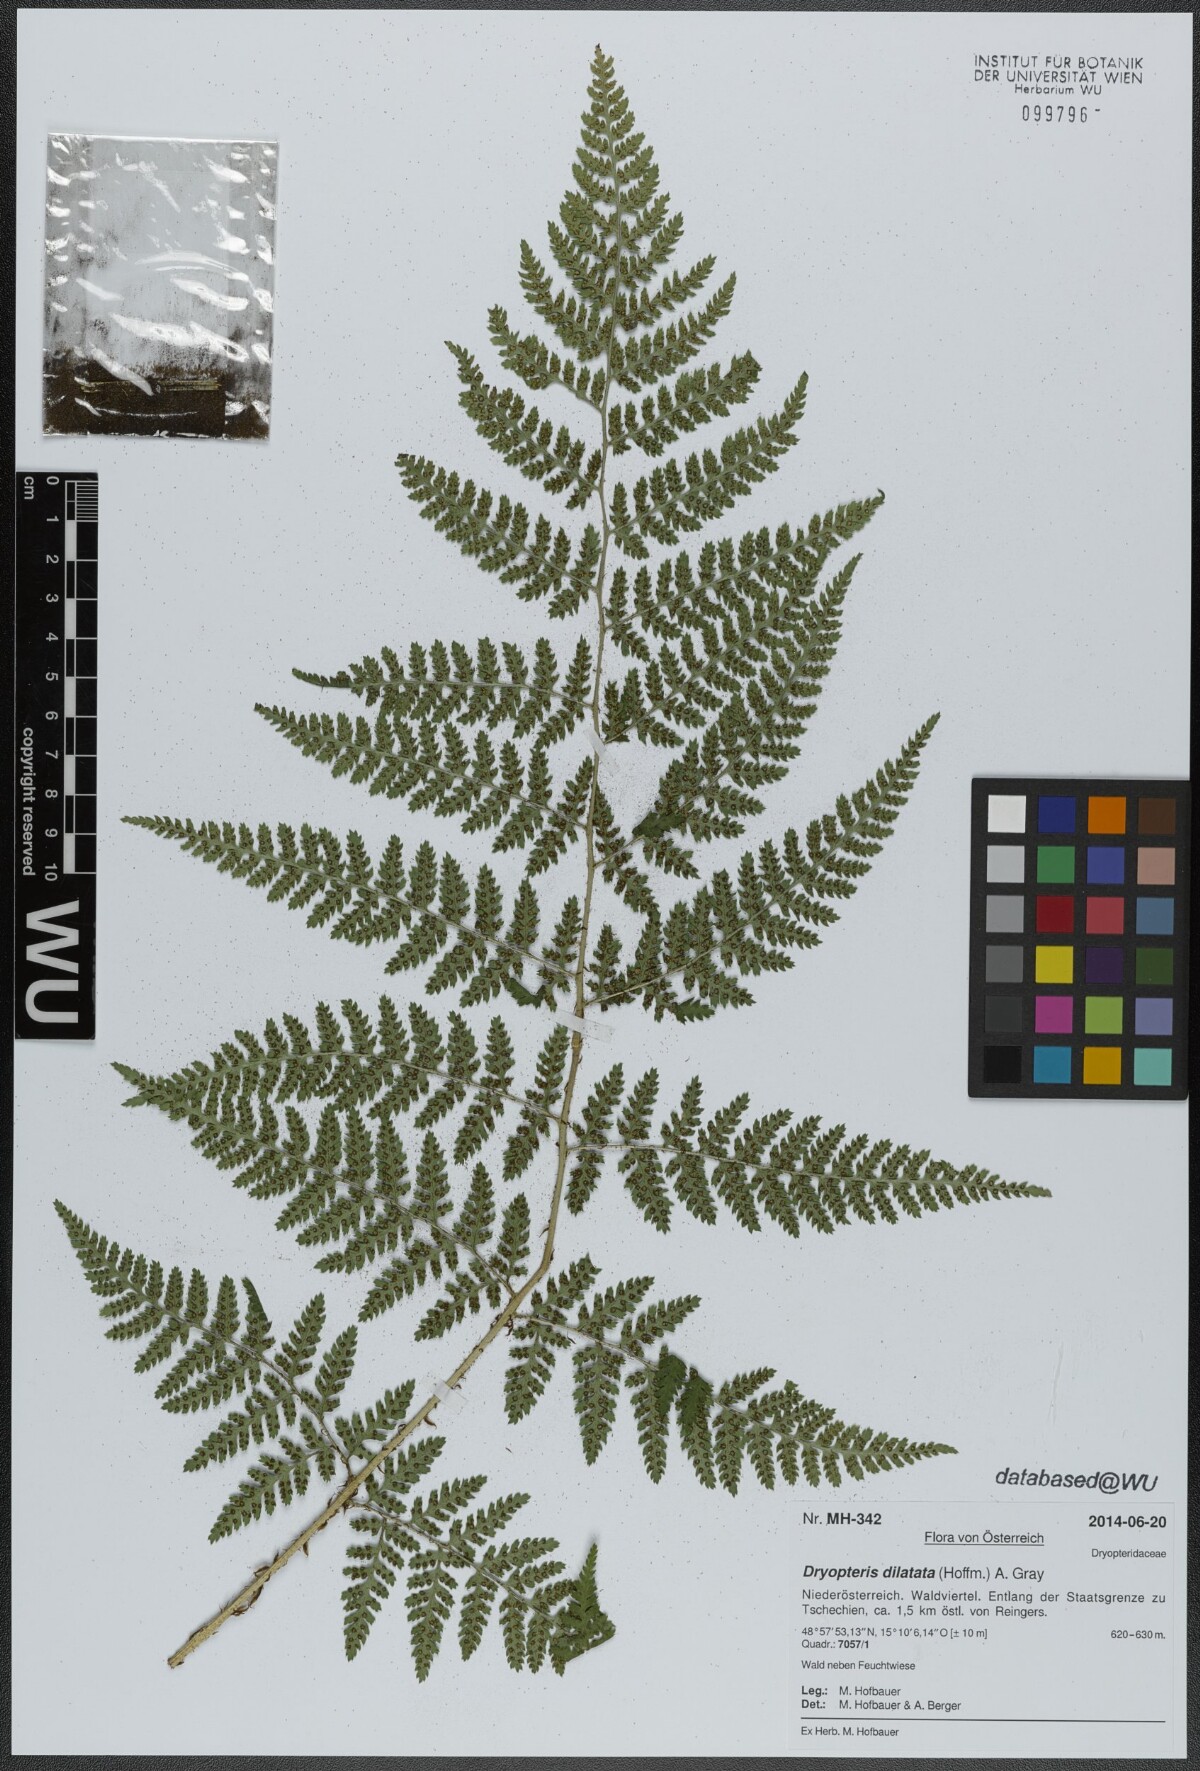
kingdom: Plantae
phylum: Tracheophyta
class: Polypodiopsida
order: Polypodiales
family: Dryopteridaceae
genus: Dryopteris
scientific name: Dryopteris dilatata
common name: Broad buckler-fern
